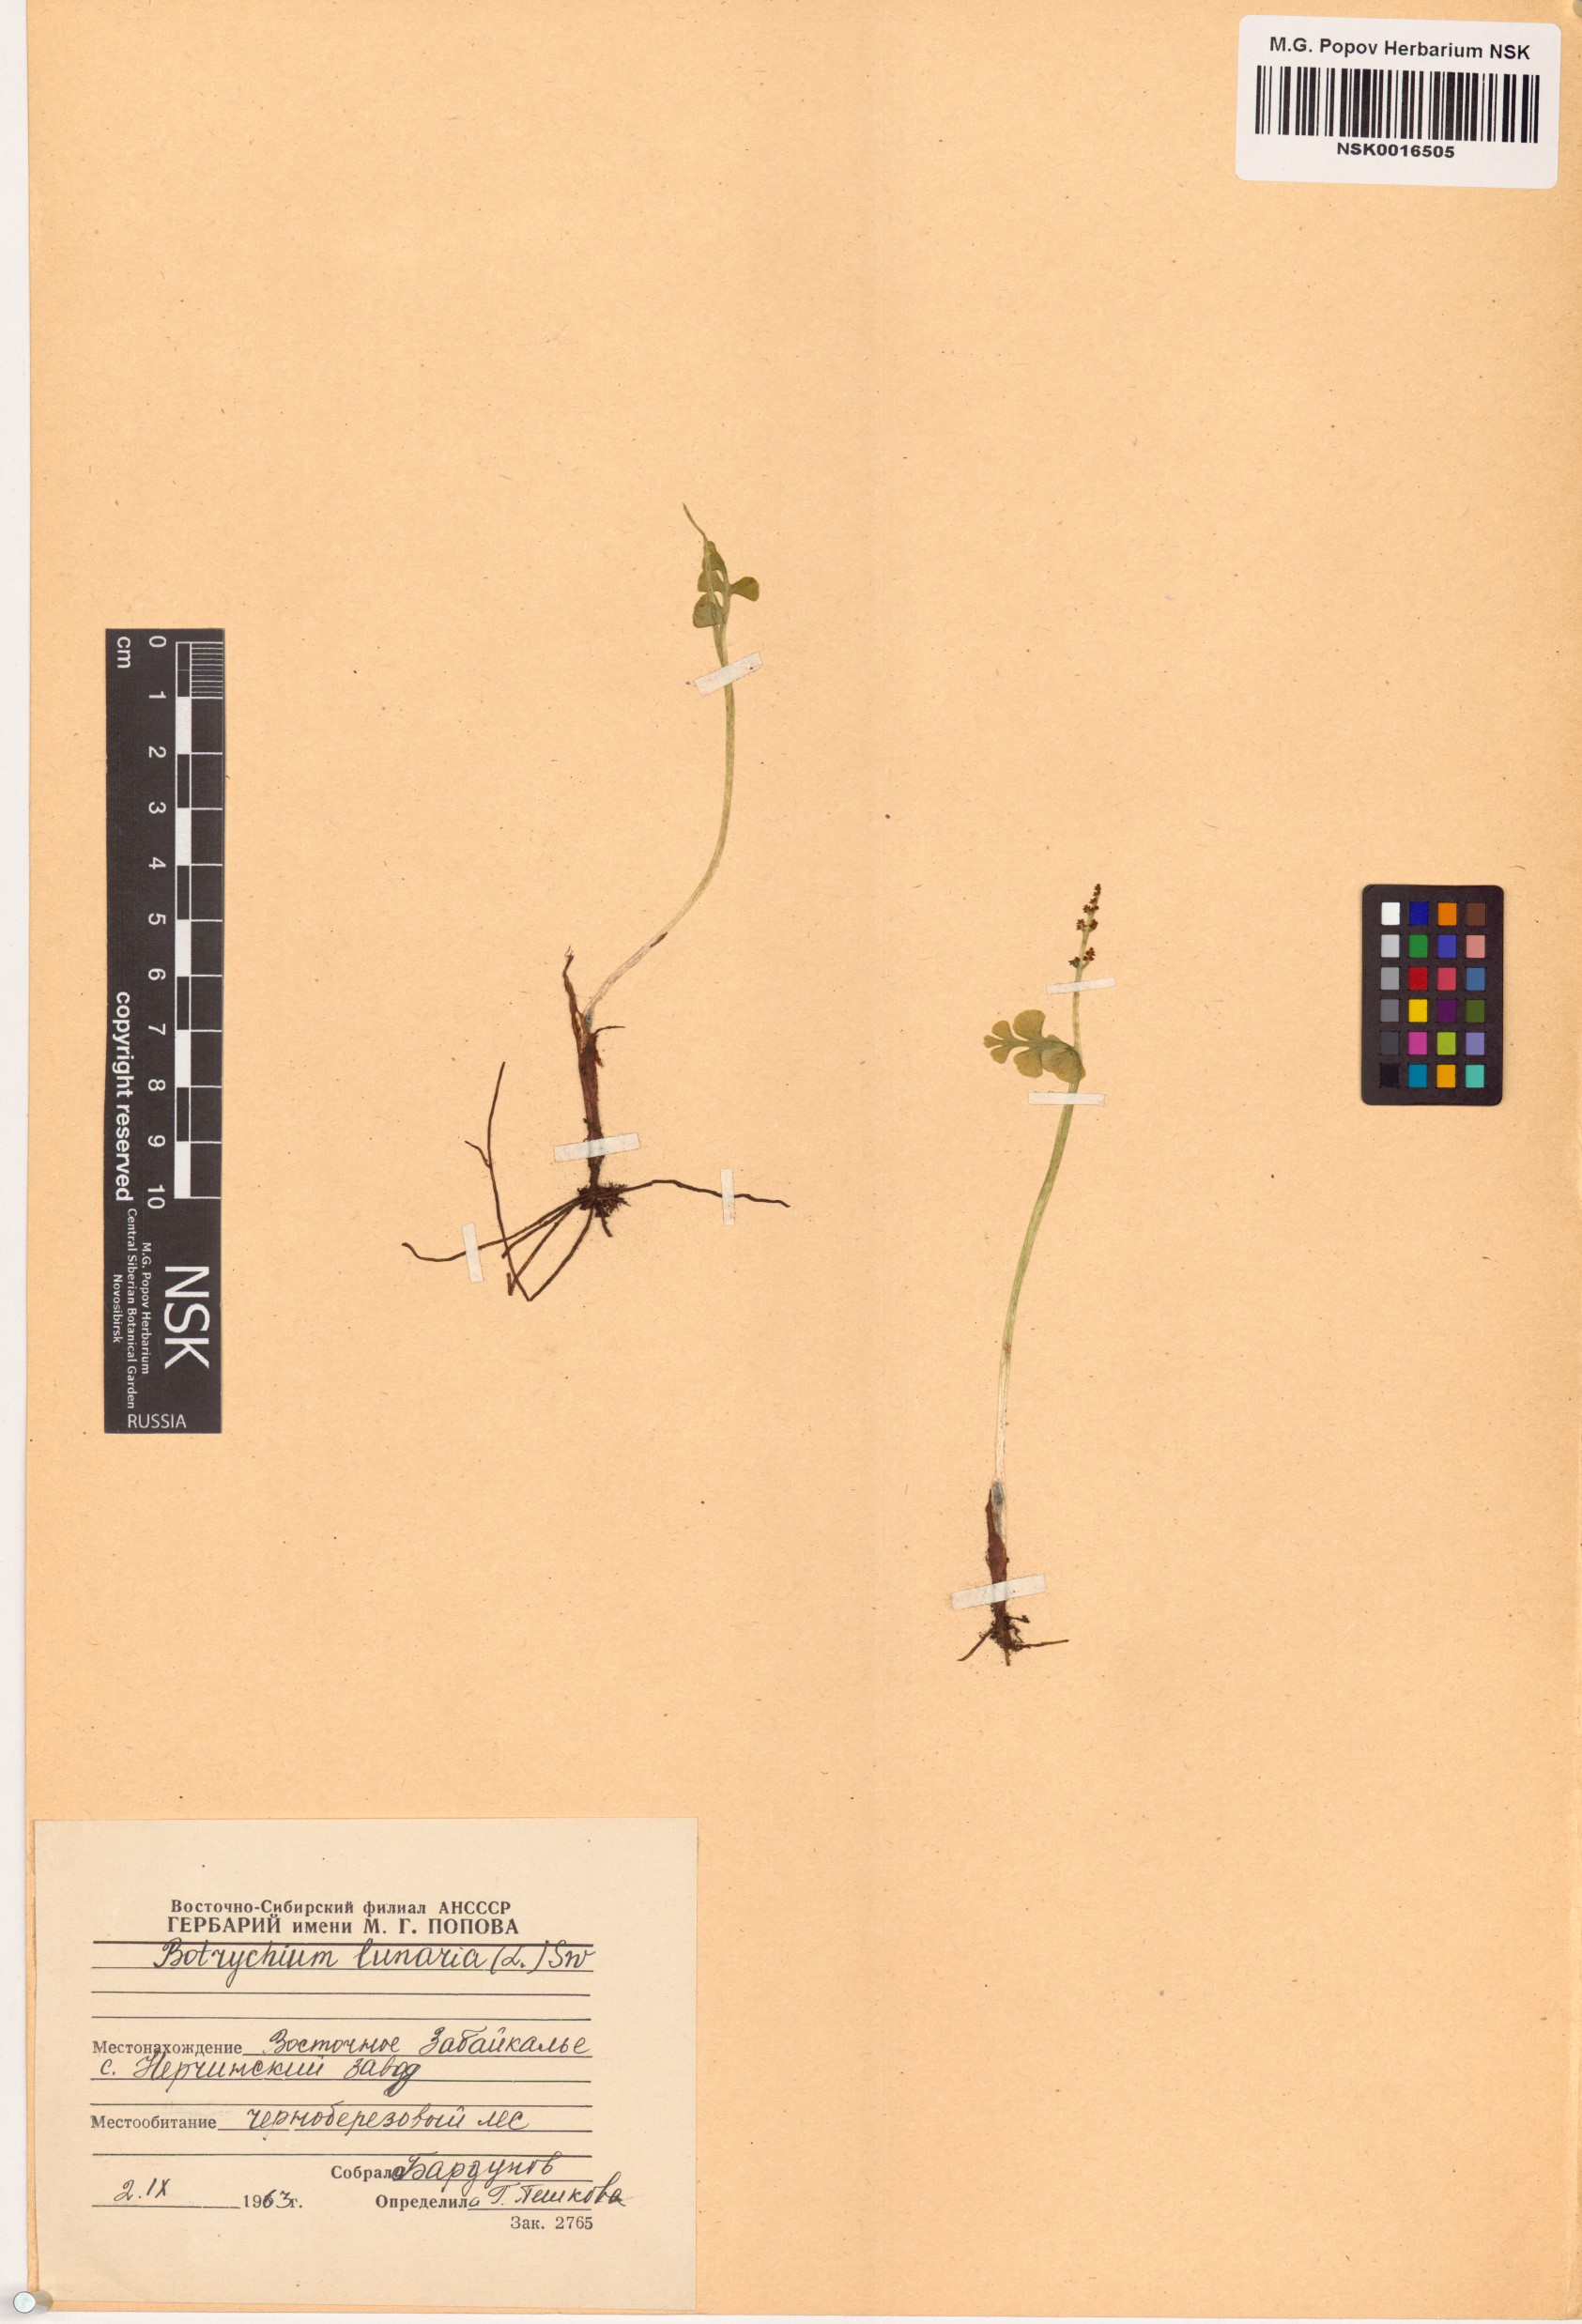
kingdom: Plantae
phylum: Tracheophyta
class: Polypodiopsida
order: Ophioglossales
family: Ophioglossaceae
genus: Botrychium
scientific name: Botrychium lunaria
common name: Moonwort
